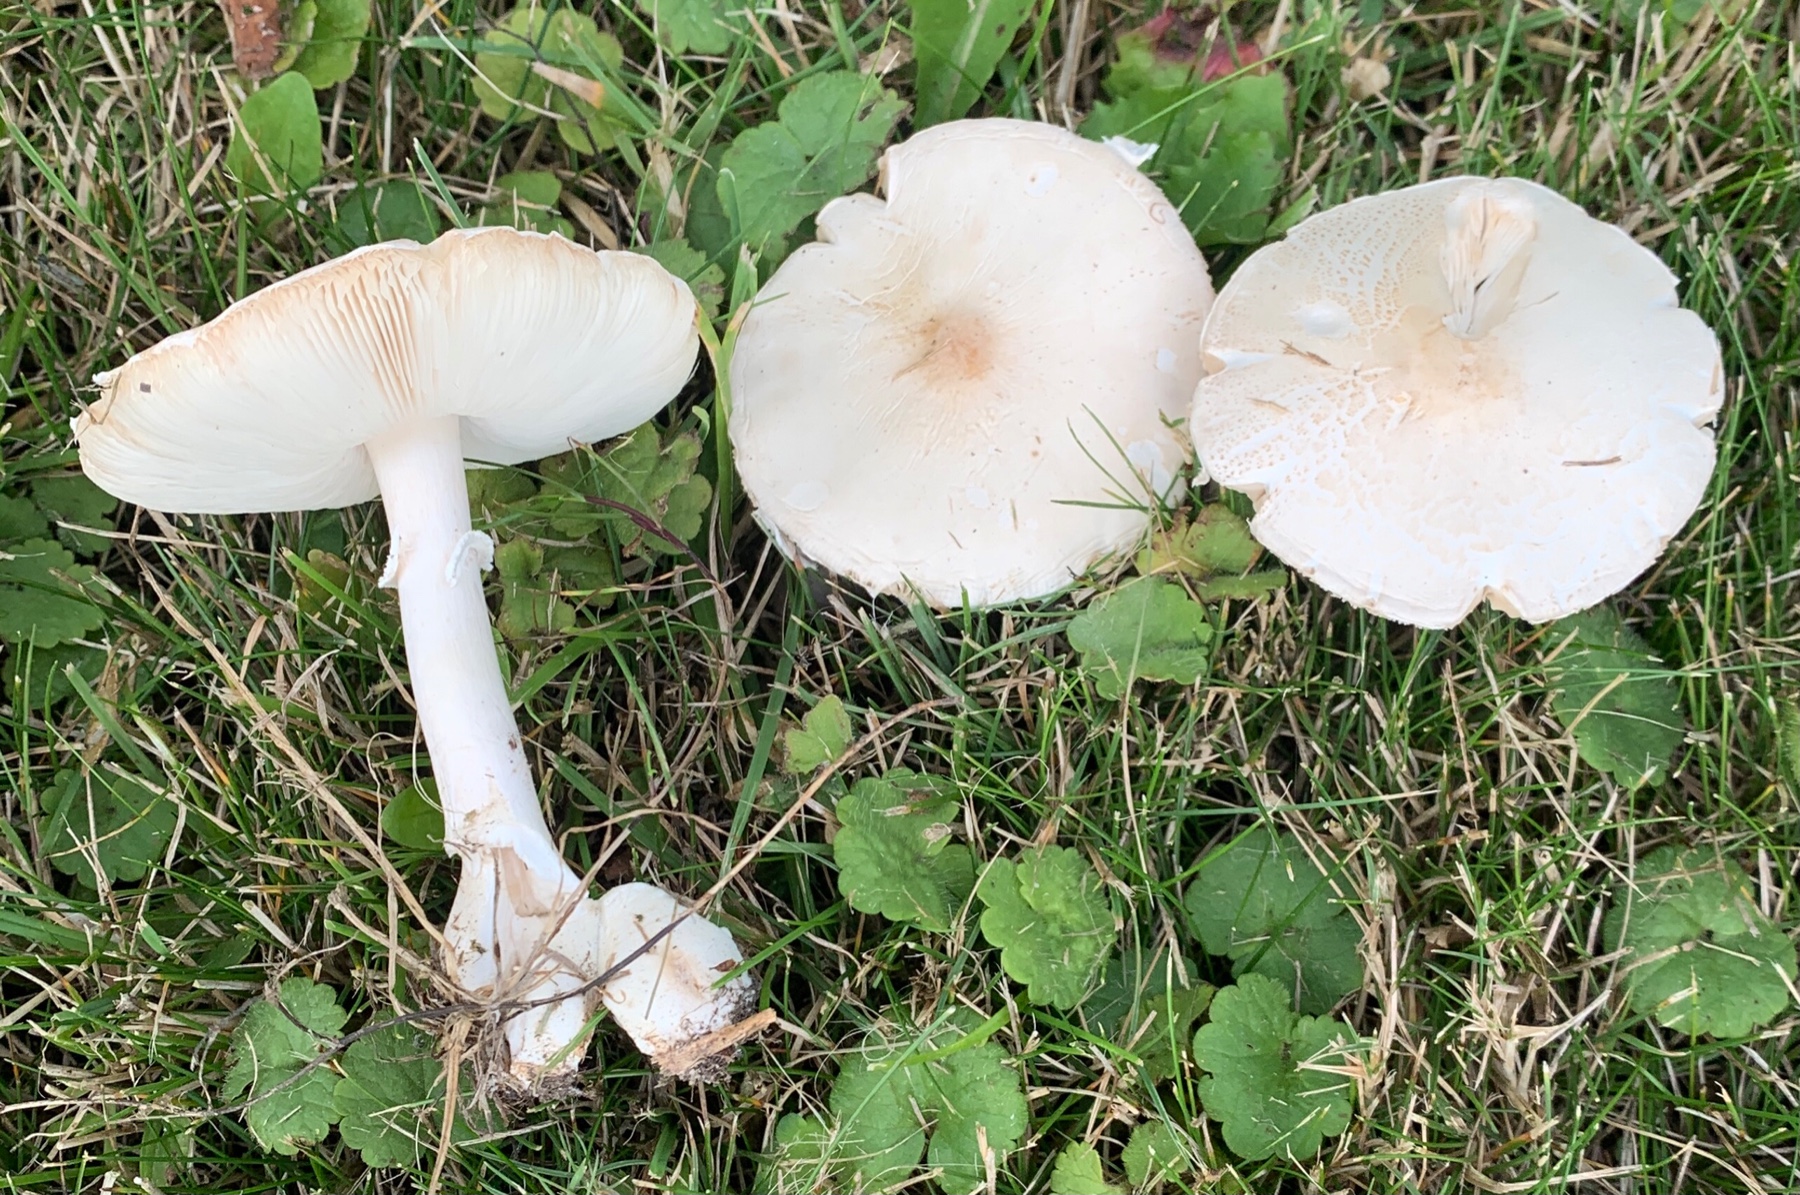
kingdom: Fungi
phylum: Basidiomycota
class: Agaricomycetes
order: Agaricales
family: Agaricaceae
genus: Leucoagaricus
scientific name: Leucoagaricus leucothites
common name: rosabladet silkehat
